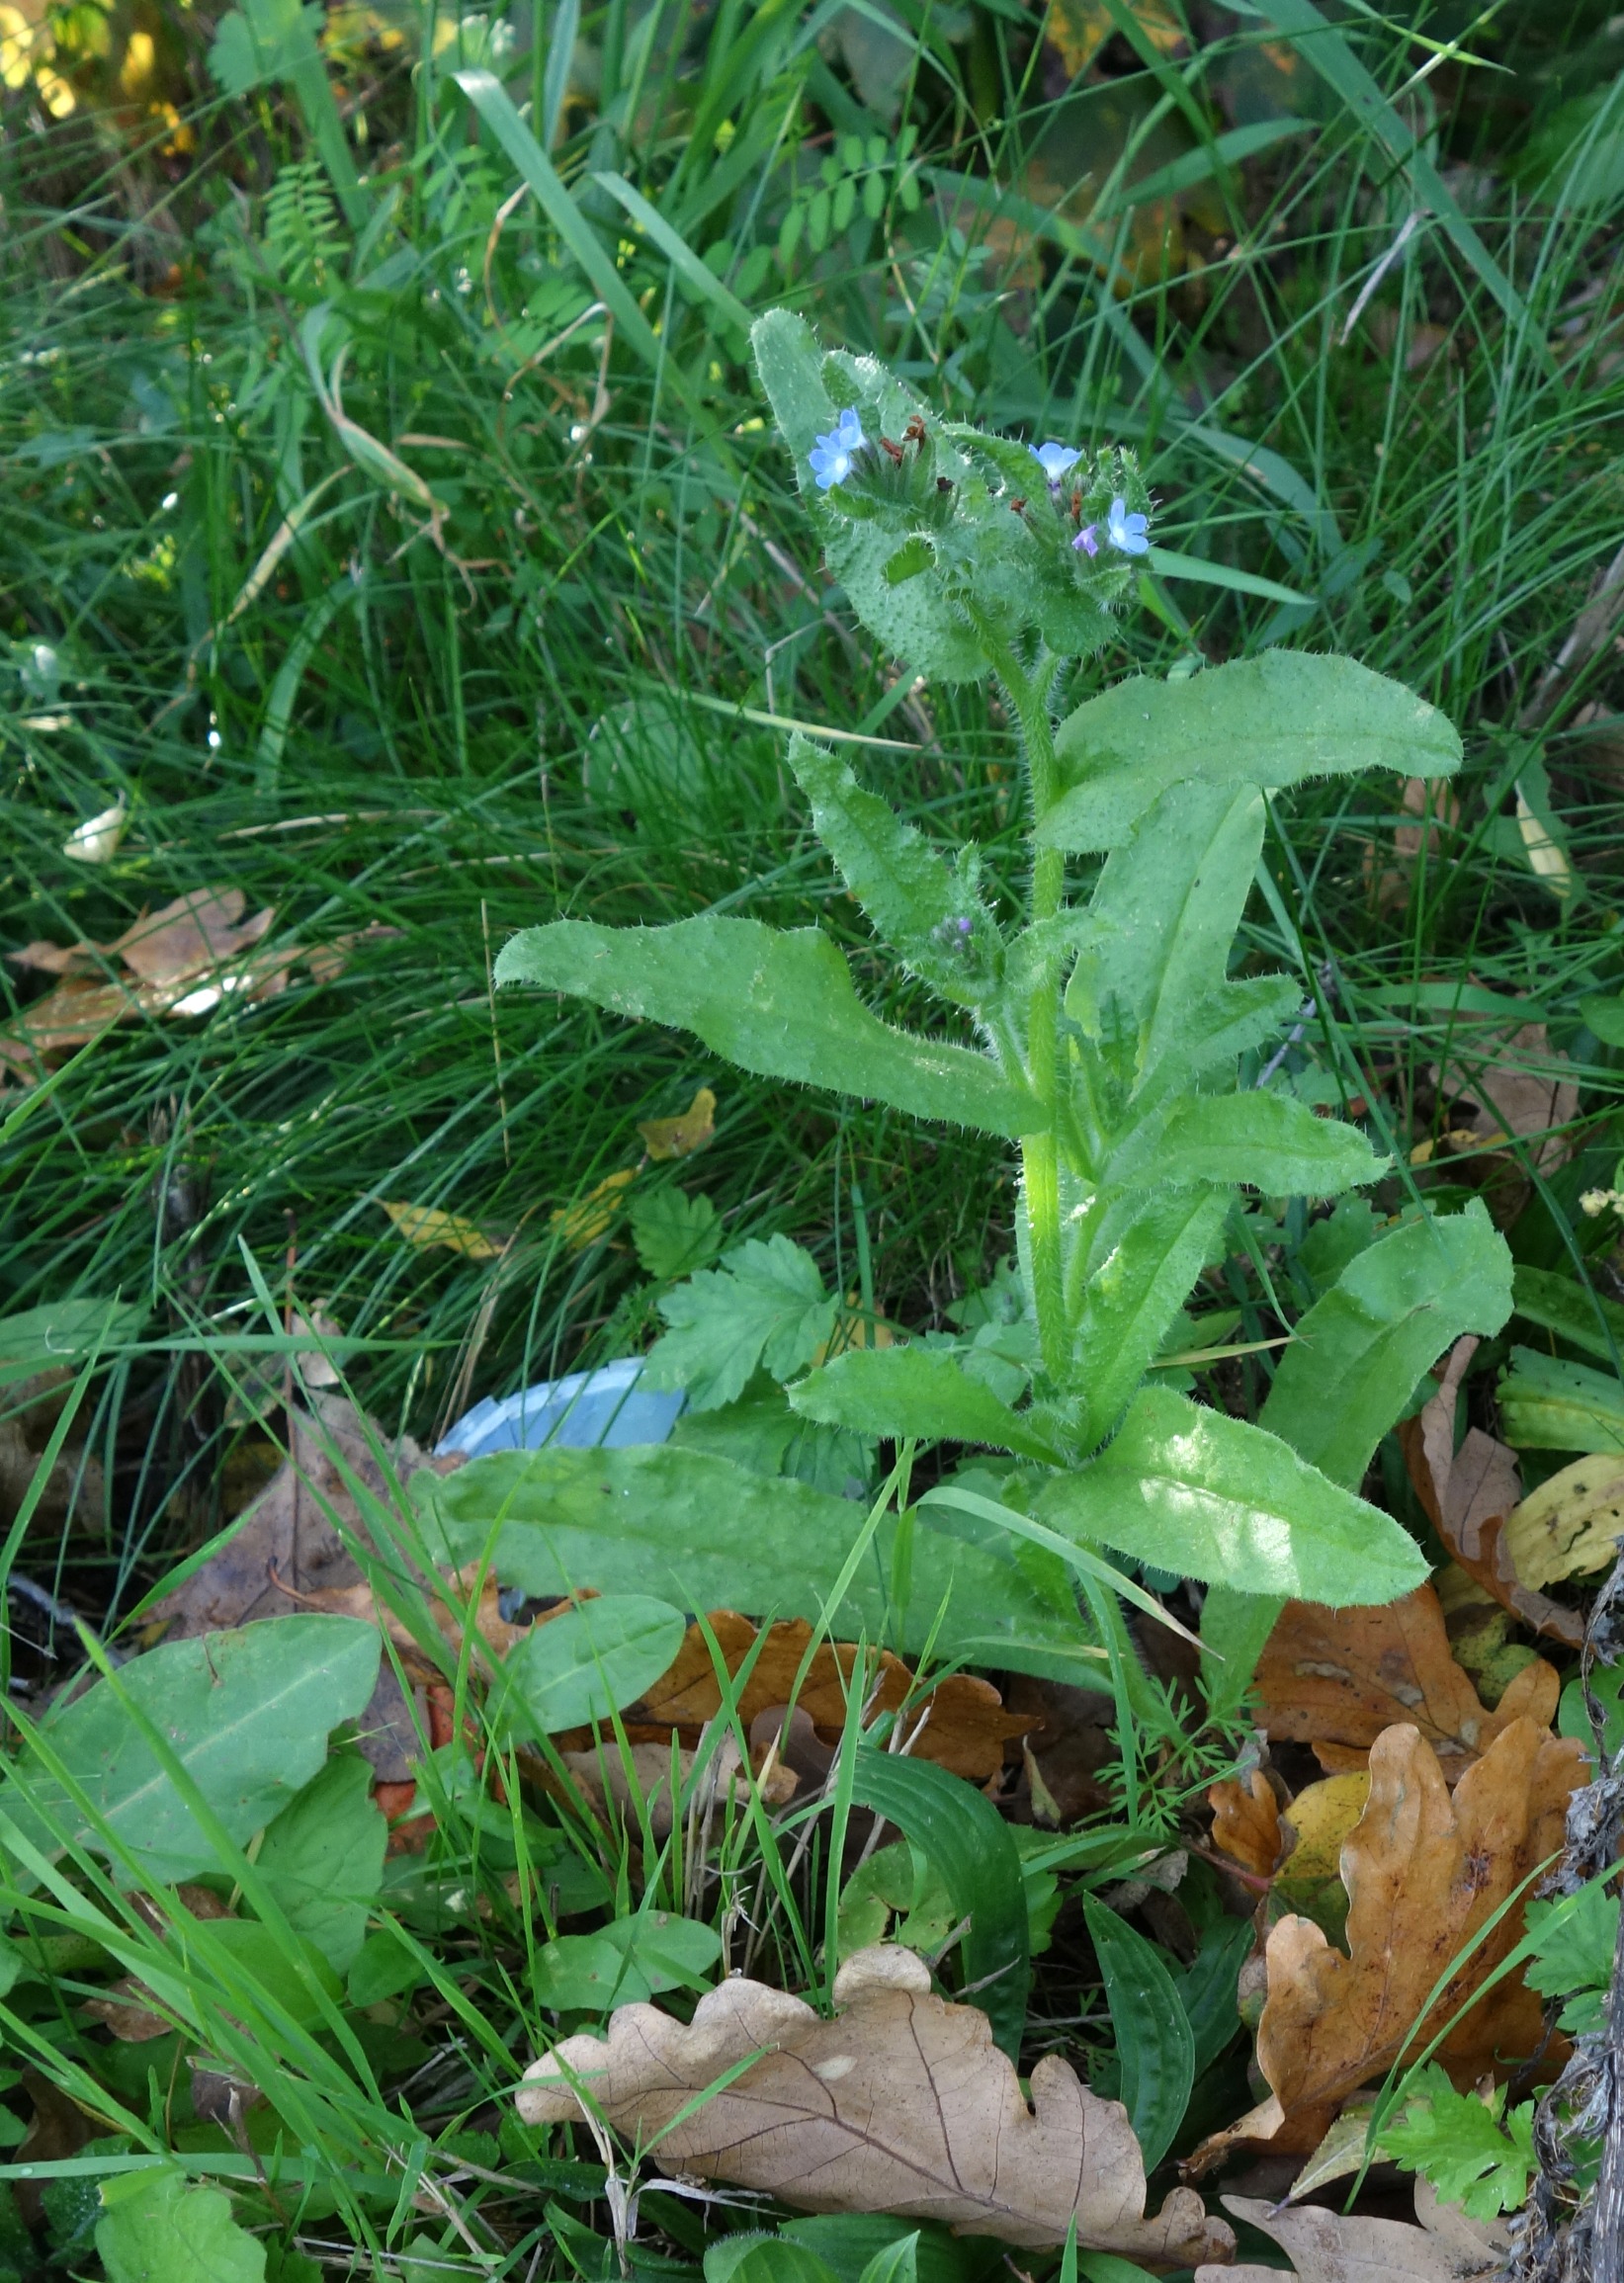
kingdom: Plantae
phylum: Tracheophyta
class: Magnoliopsida
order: Boraginales
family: Boraginaceae
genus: Lycopsis
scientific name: Lycopsis arvensis
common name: Krumhals
